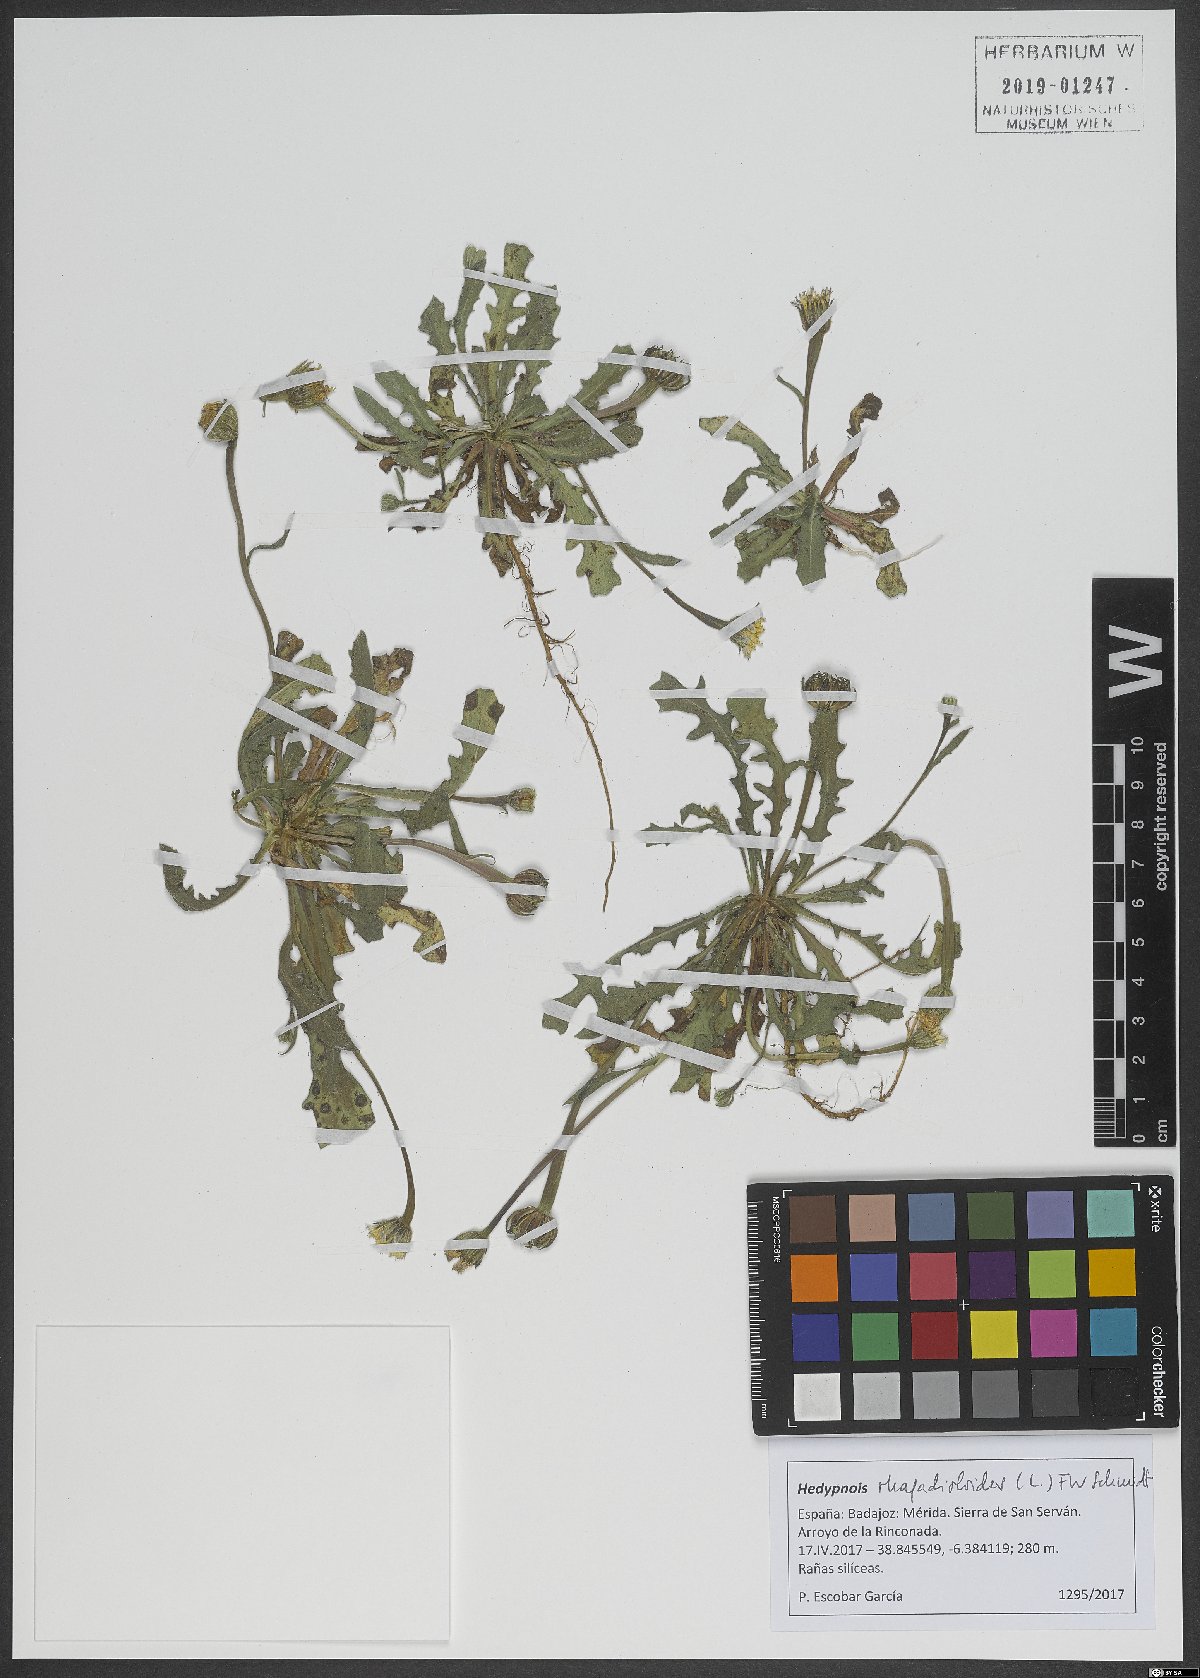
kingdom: Plantae
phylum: Tracheophyta
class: Magnoliopsida
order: Asterales
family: Asteraceae
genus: Hedypnois
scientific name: Hedypnois rhagadioloides
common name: Cretan weed
